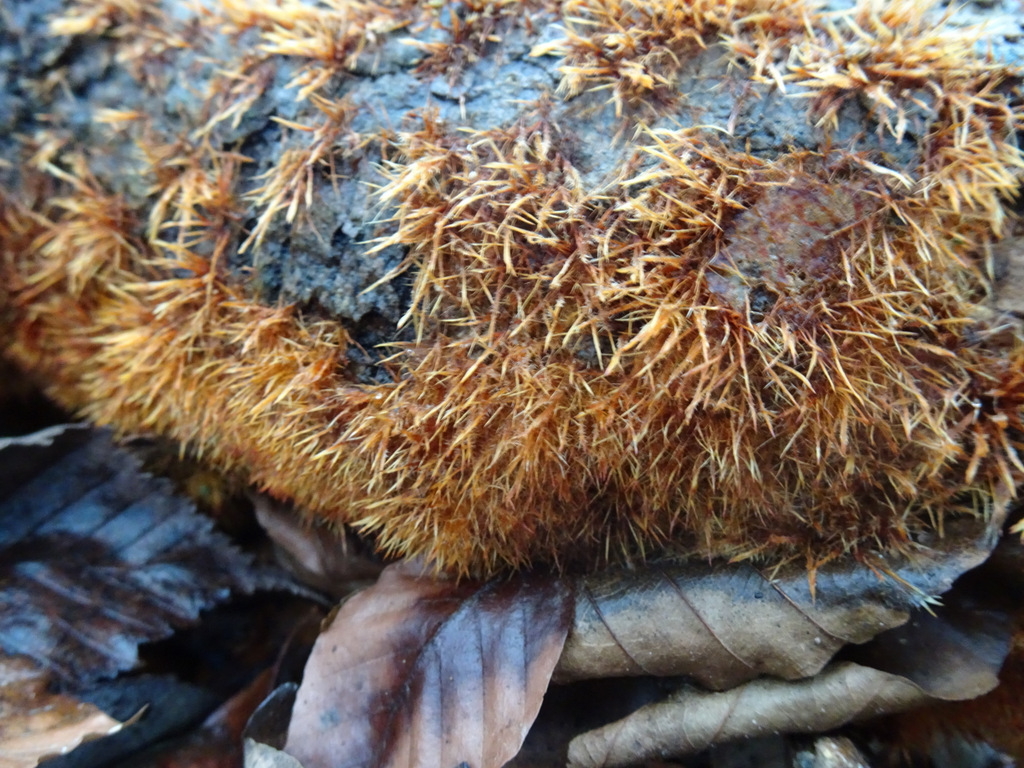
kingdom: Fungi
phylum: Basidiomycota
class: Agaricomycetes
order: Agaricales
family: Psathyrellaceae
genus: Ozonium
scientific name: Ozonium
